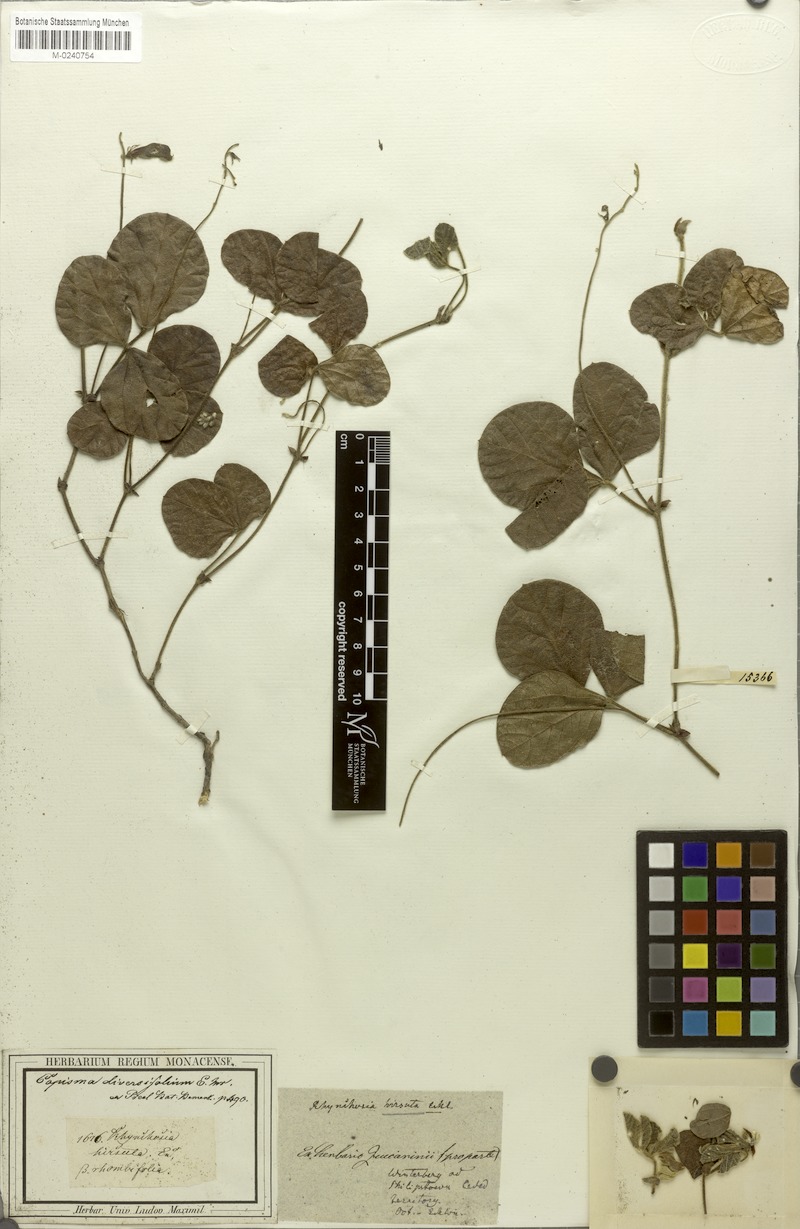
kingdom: Plantae
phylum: Tracheophyta
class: Magnoliopsida
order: Fabales
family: Fabaceae
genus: Rhynchosia
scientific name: Rhynchosia hirsuta
